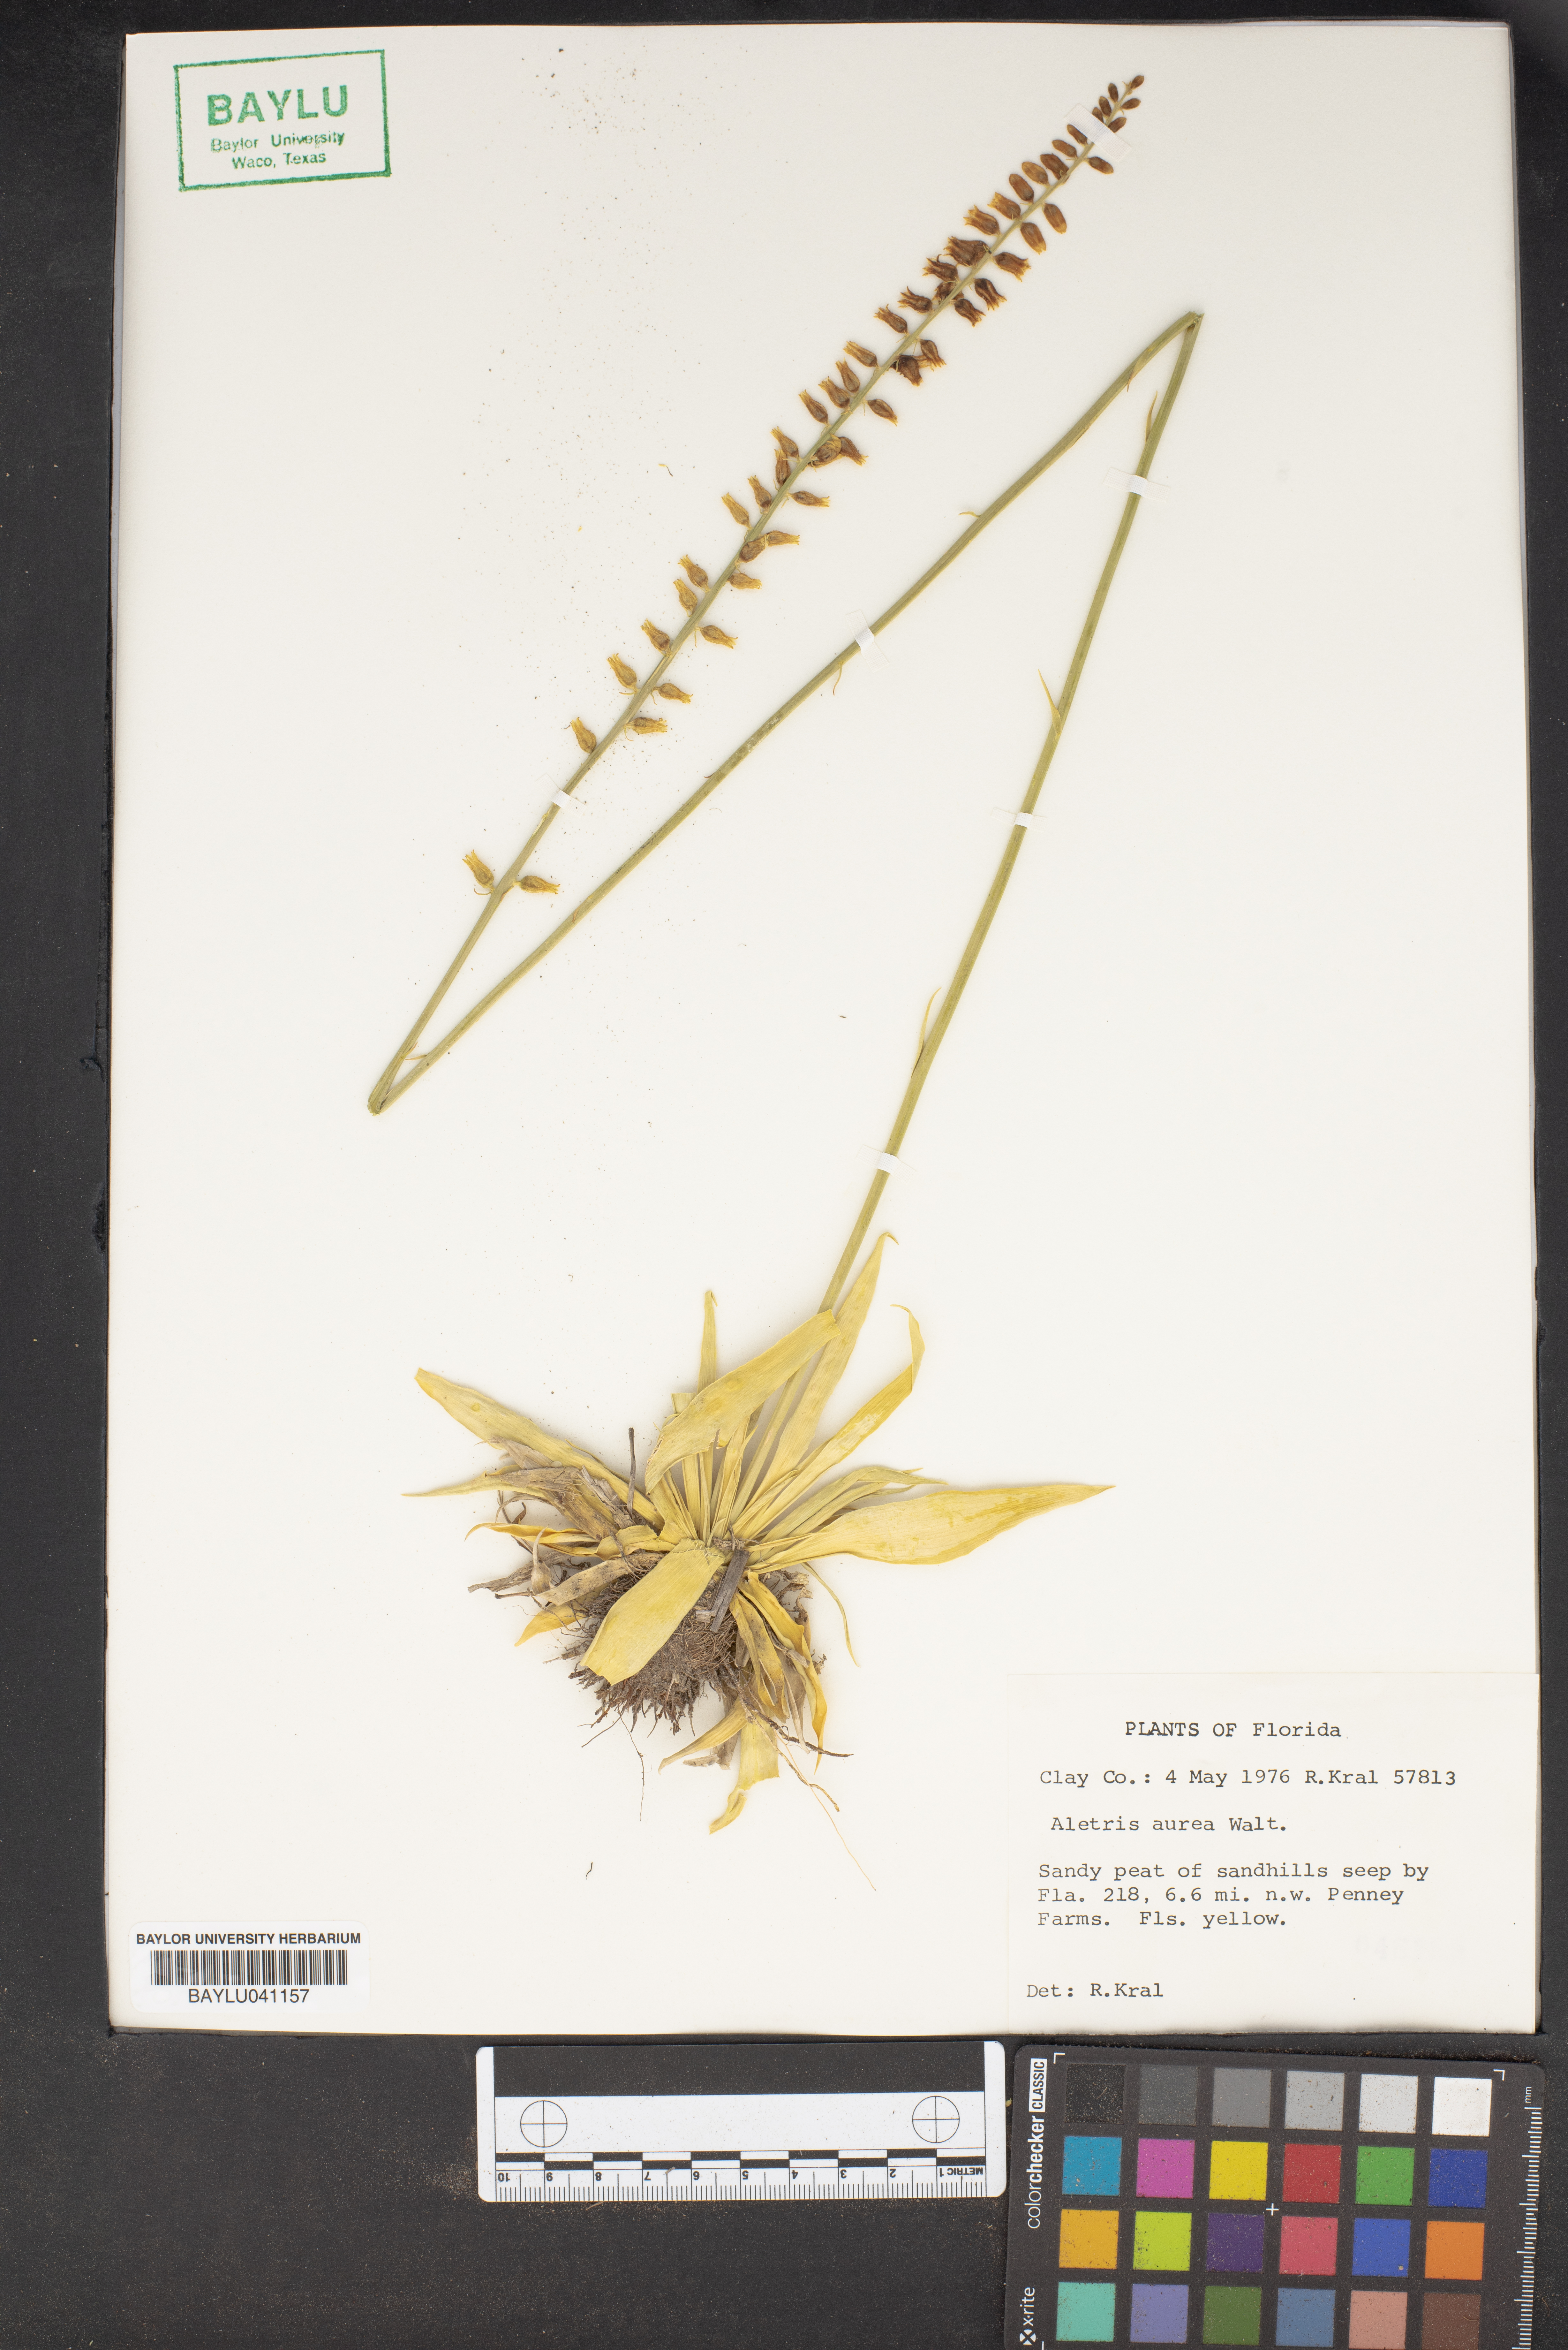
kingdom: Plantae
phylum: Tracheophyta
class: Liliopsida
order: Dioscoreales
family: Nartheciaceae
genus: Aletris
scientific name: Aletris aurea
